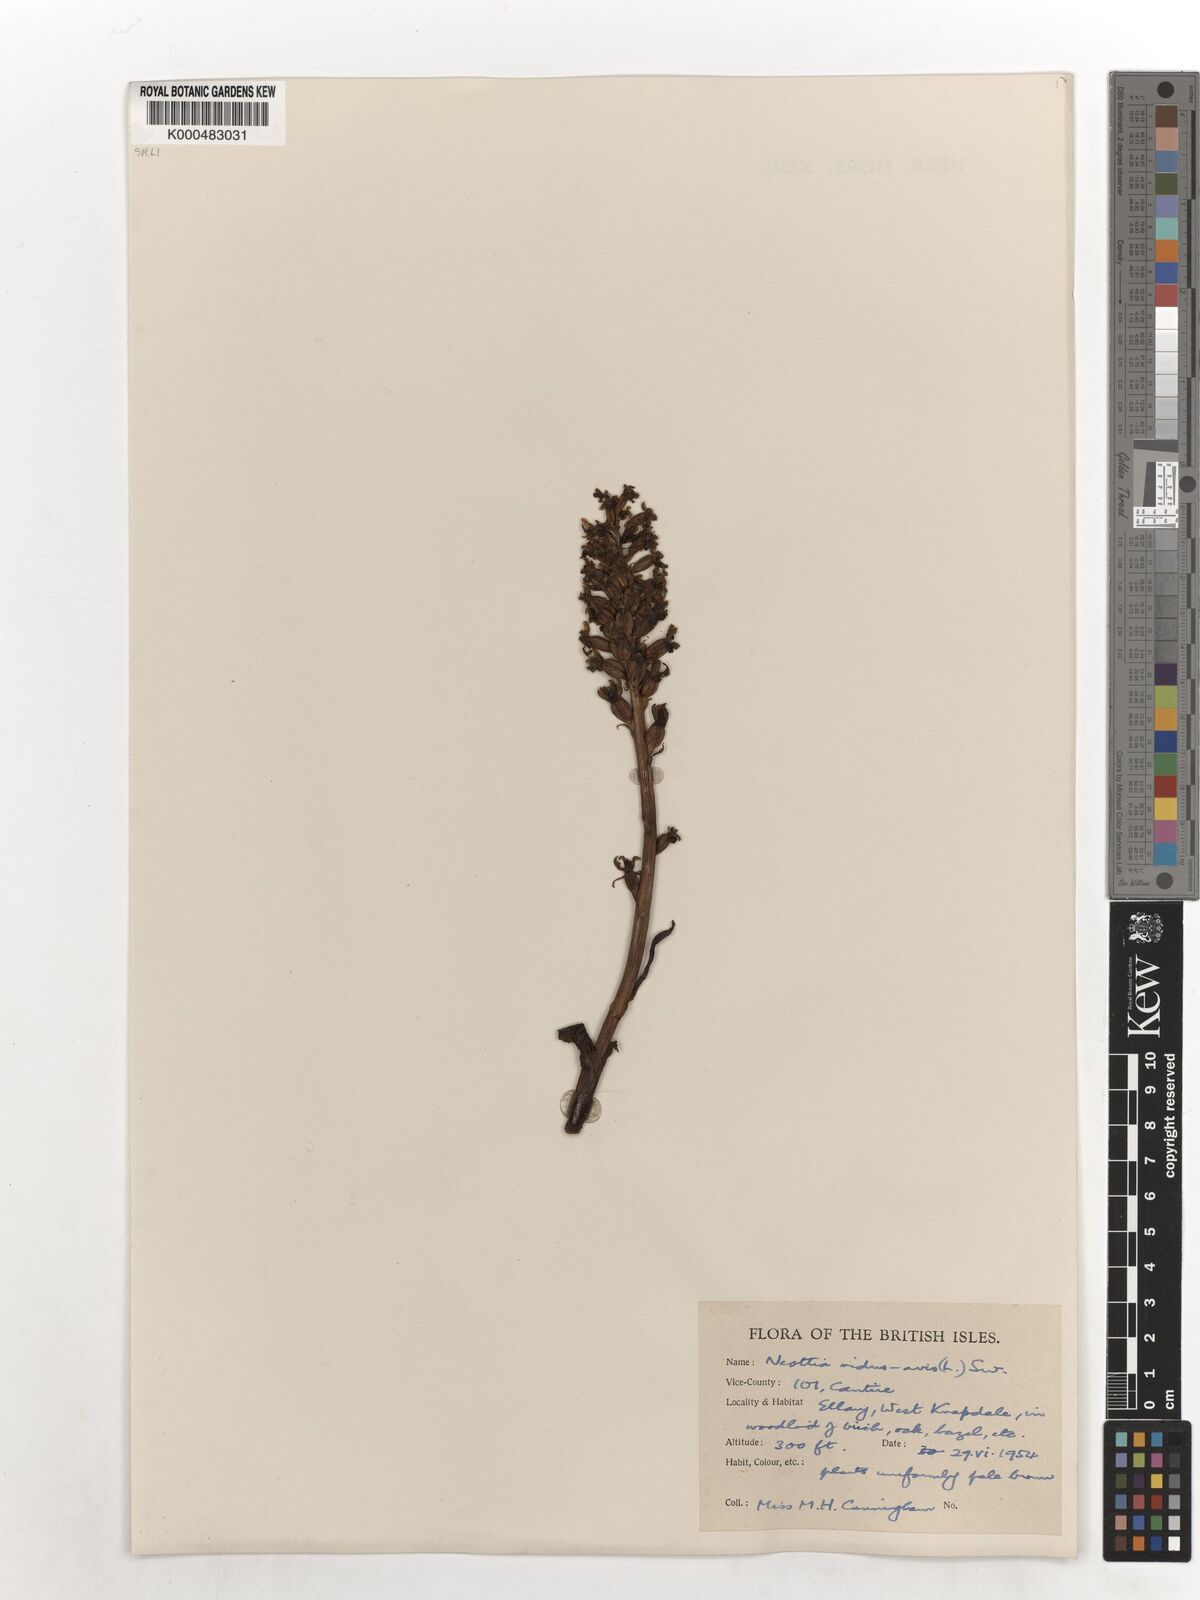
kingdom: Plantae
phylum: Tracheophyta
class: Liliopsida
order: Asparagales
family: Orchidaceae
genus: Neottia
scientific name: Neottia nidus-avis
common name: Bird's-nest orchid
